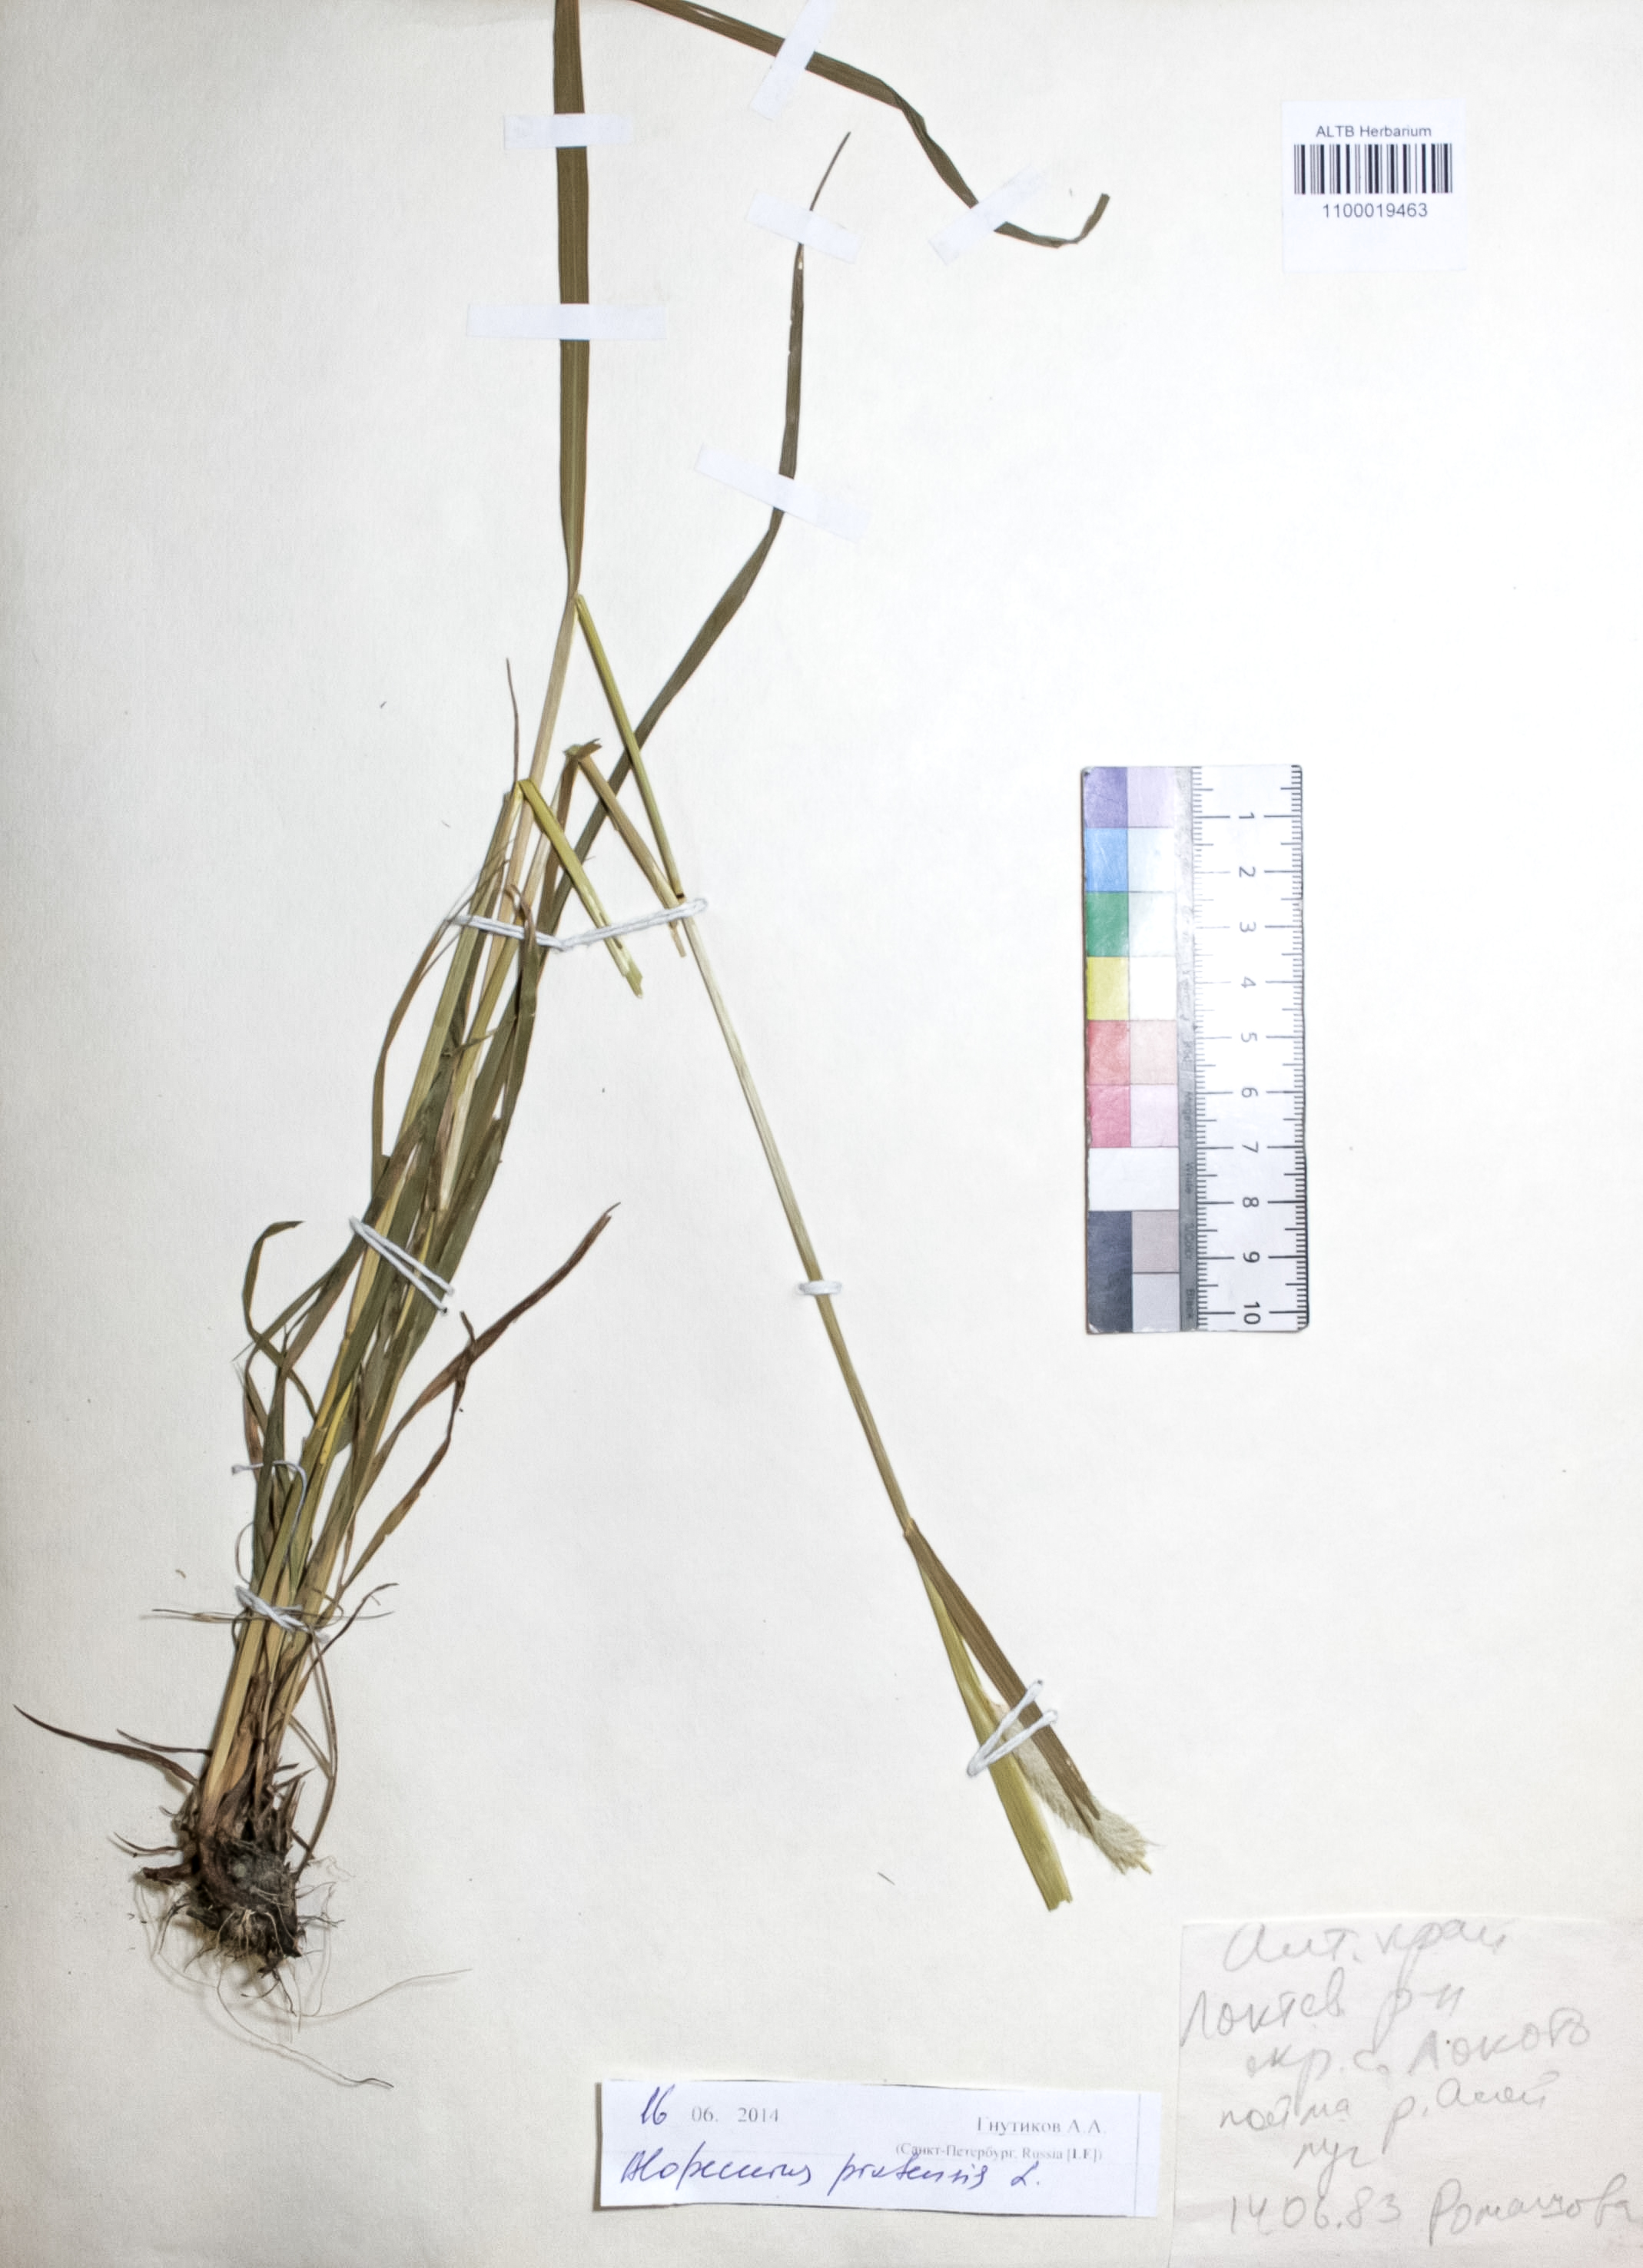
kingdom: Plantae
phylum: Tracheophyta
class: Liliopsida
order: Poales
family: Poaceae
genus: Alopecurus
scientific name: Alopecurus pratensis
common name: Meadow foxtail
